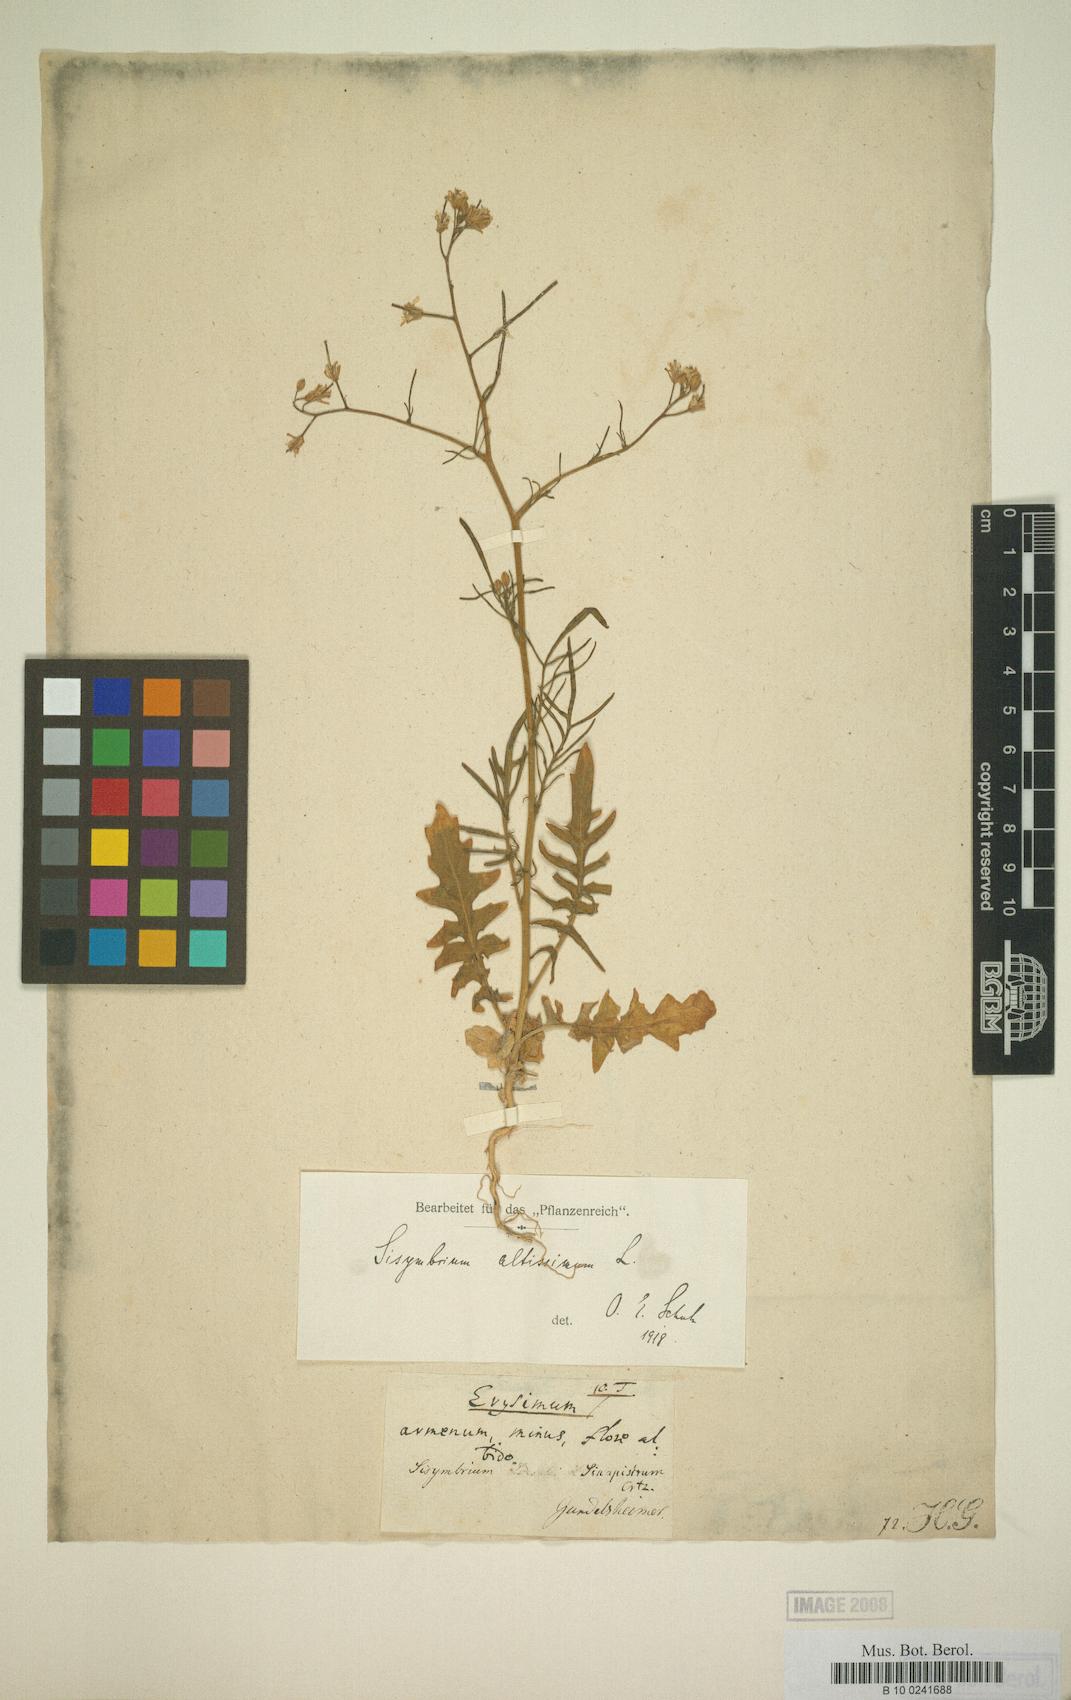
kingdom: Plantae
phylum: Tracheophyta
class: Magnoliopsida
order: Brassicales
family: Brassicaceae
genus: Sisymbrium
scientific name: Sisymbrium altissimum
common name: Tall rocket
